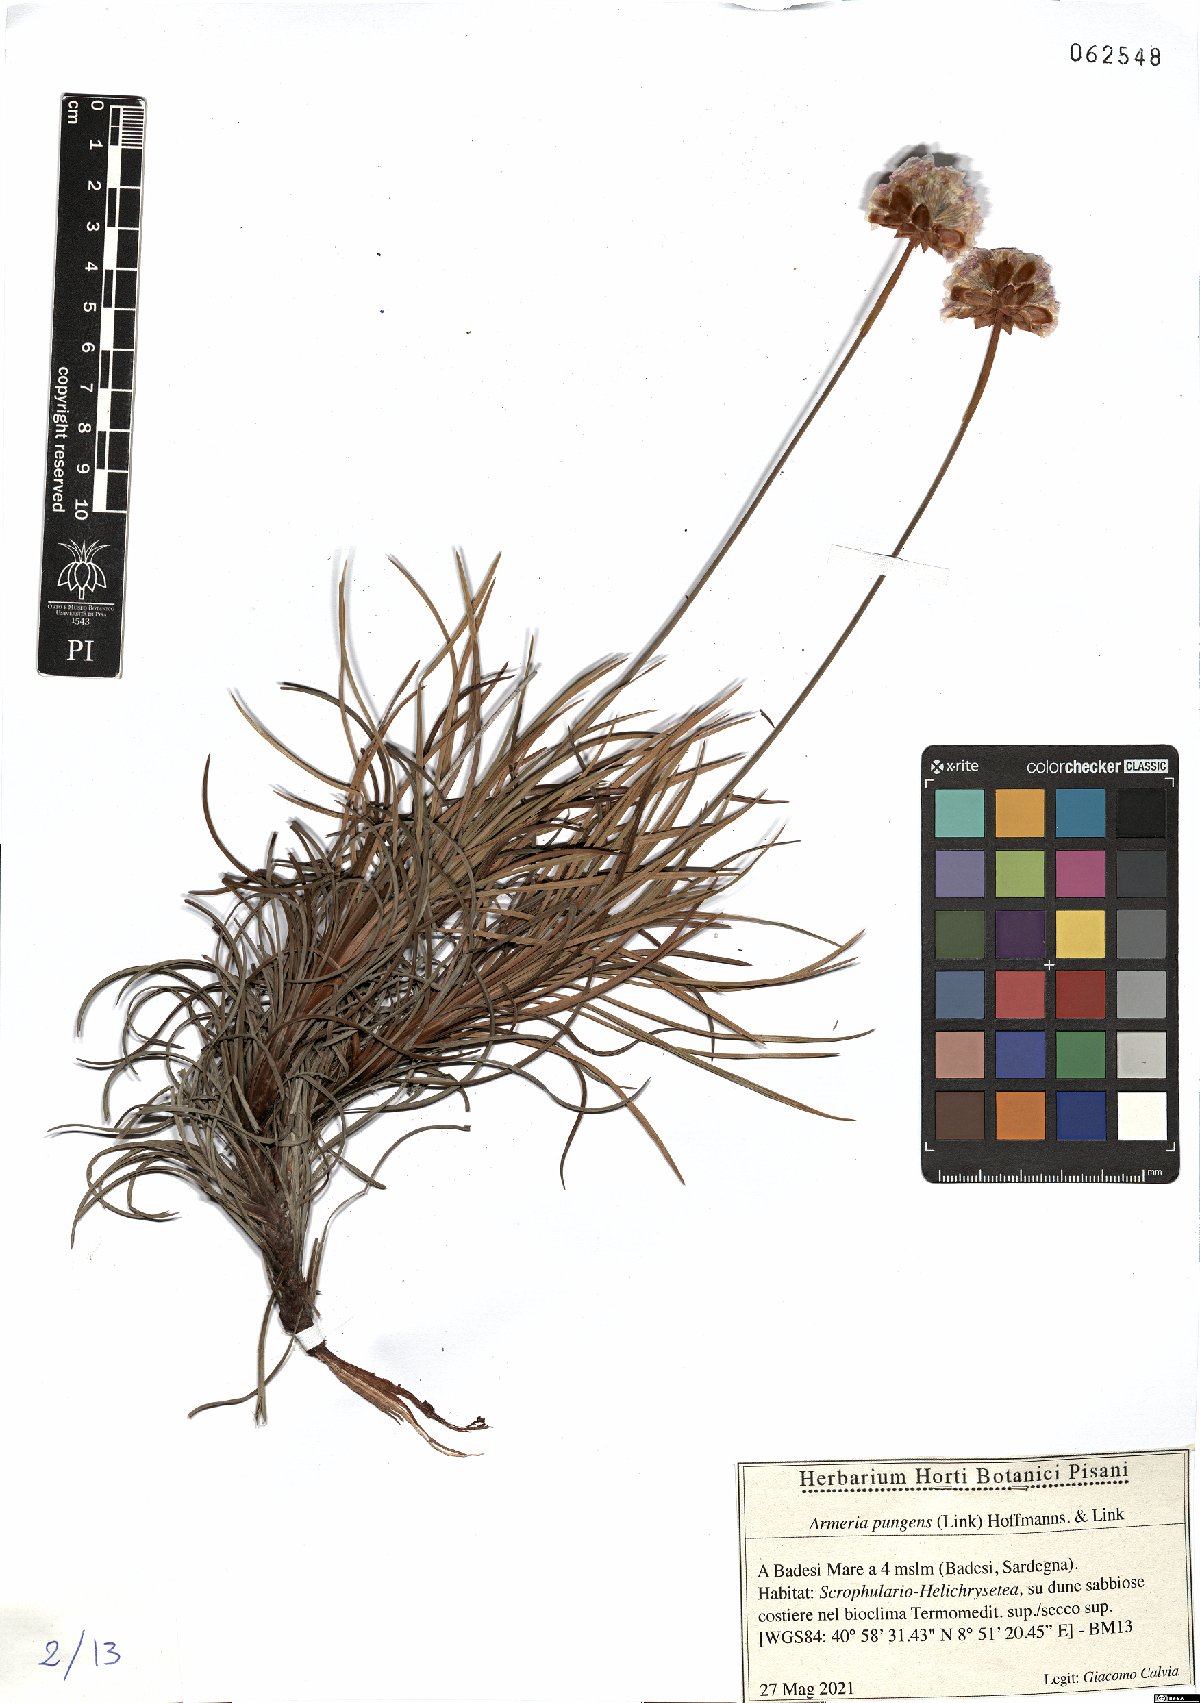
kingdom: Plantae
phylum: Tracheophyta
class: Magnoliopsida
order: Caryophyllales
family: Plumbaginaceae
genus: Armeria
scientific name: Armeria pungens
